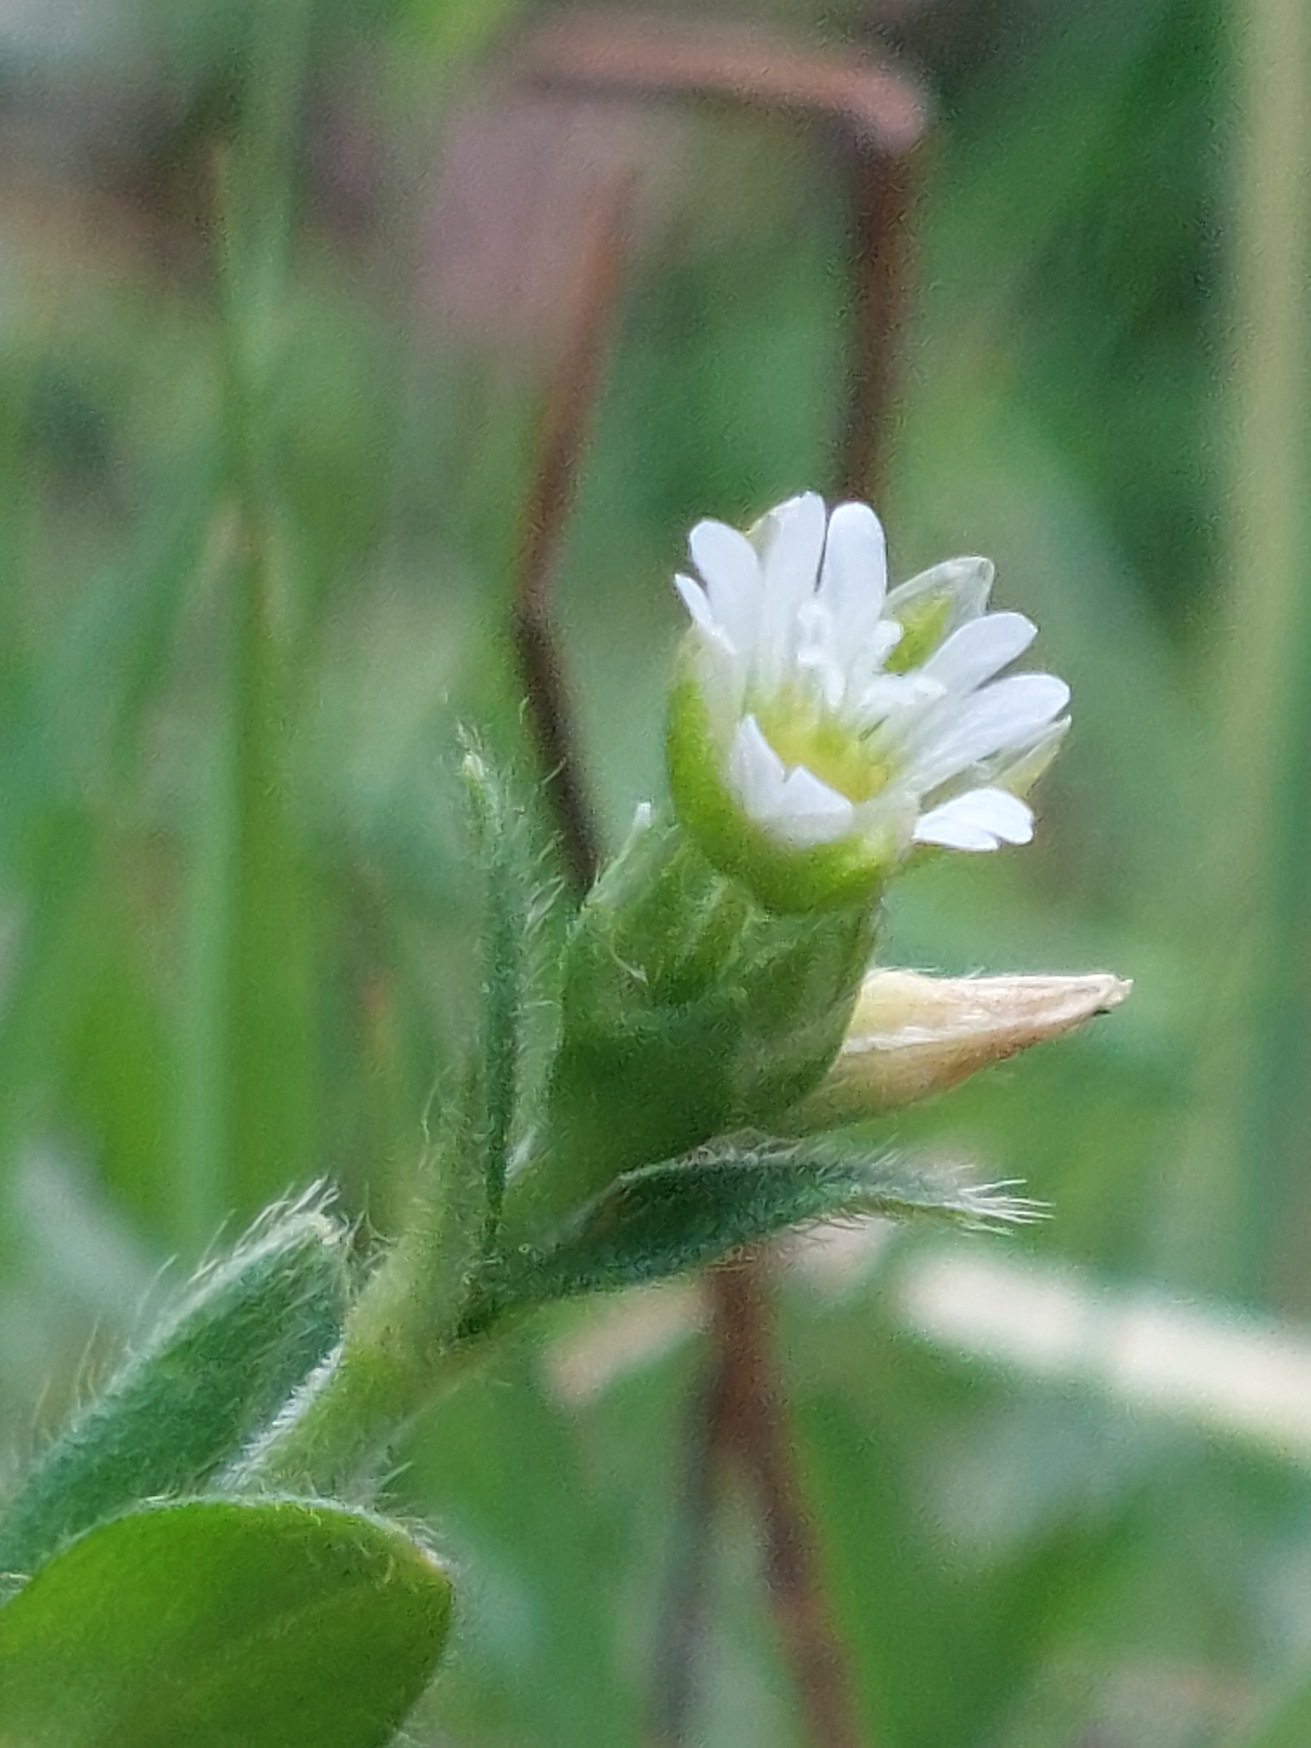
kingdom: Plantae
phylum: Tracheophyta
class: Magnoliopsida
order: Caryophyllales
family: Caryophyllaceae
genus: Cerastium
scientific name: Cerastium fontanum
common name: Almindelig hønsetarm
